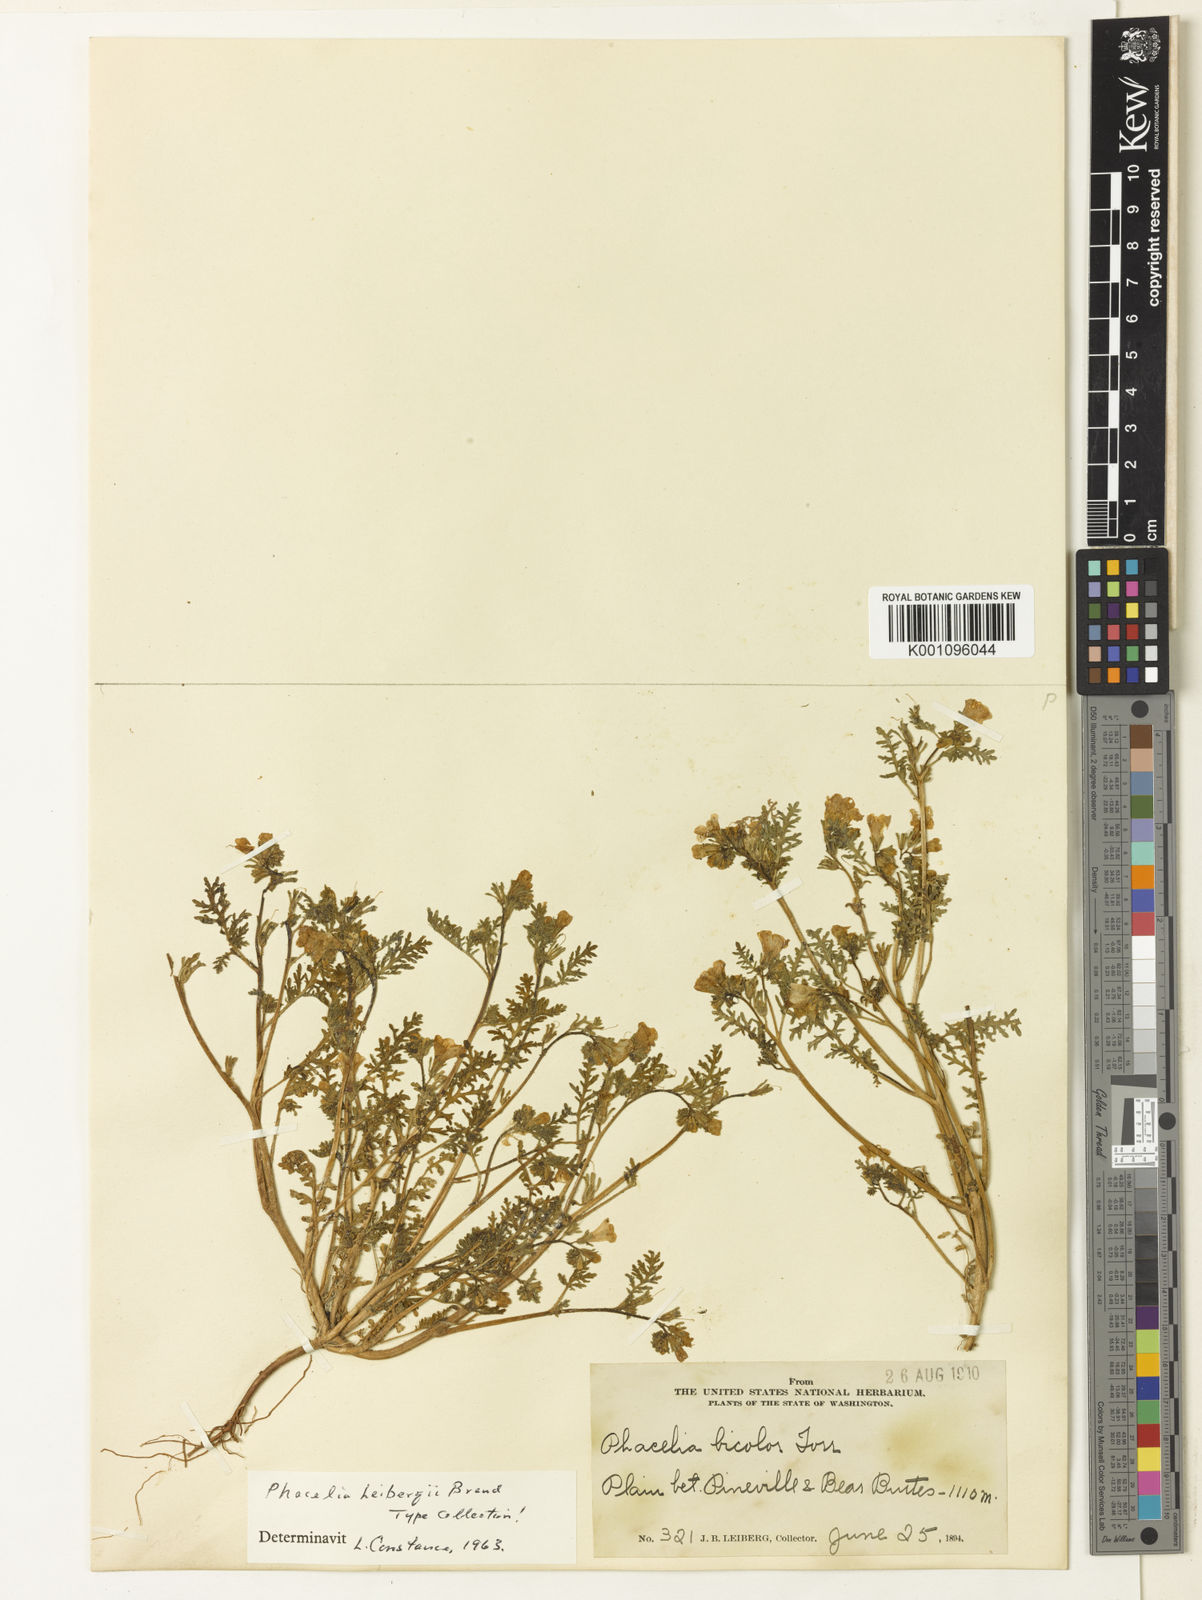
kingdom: Plantae
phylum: Tracheophyta
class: Magnoliopsida
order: Boraginales
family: Hydrophyllaceae
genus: Phacelia
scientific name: Phacelia leibergii
